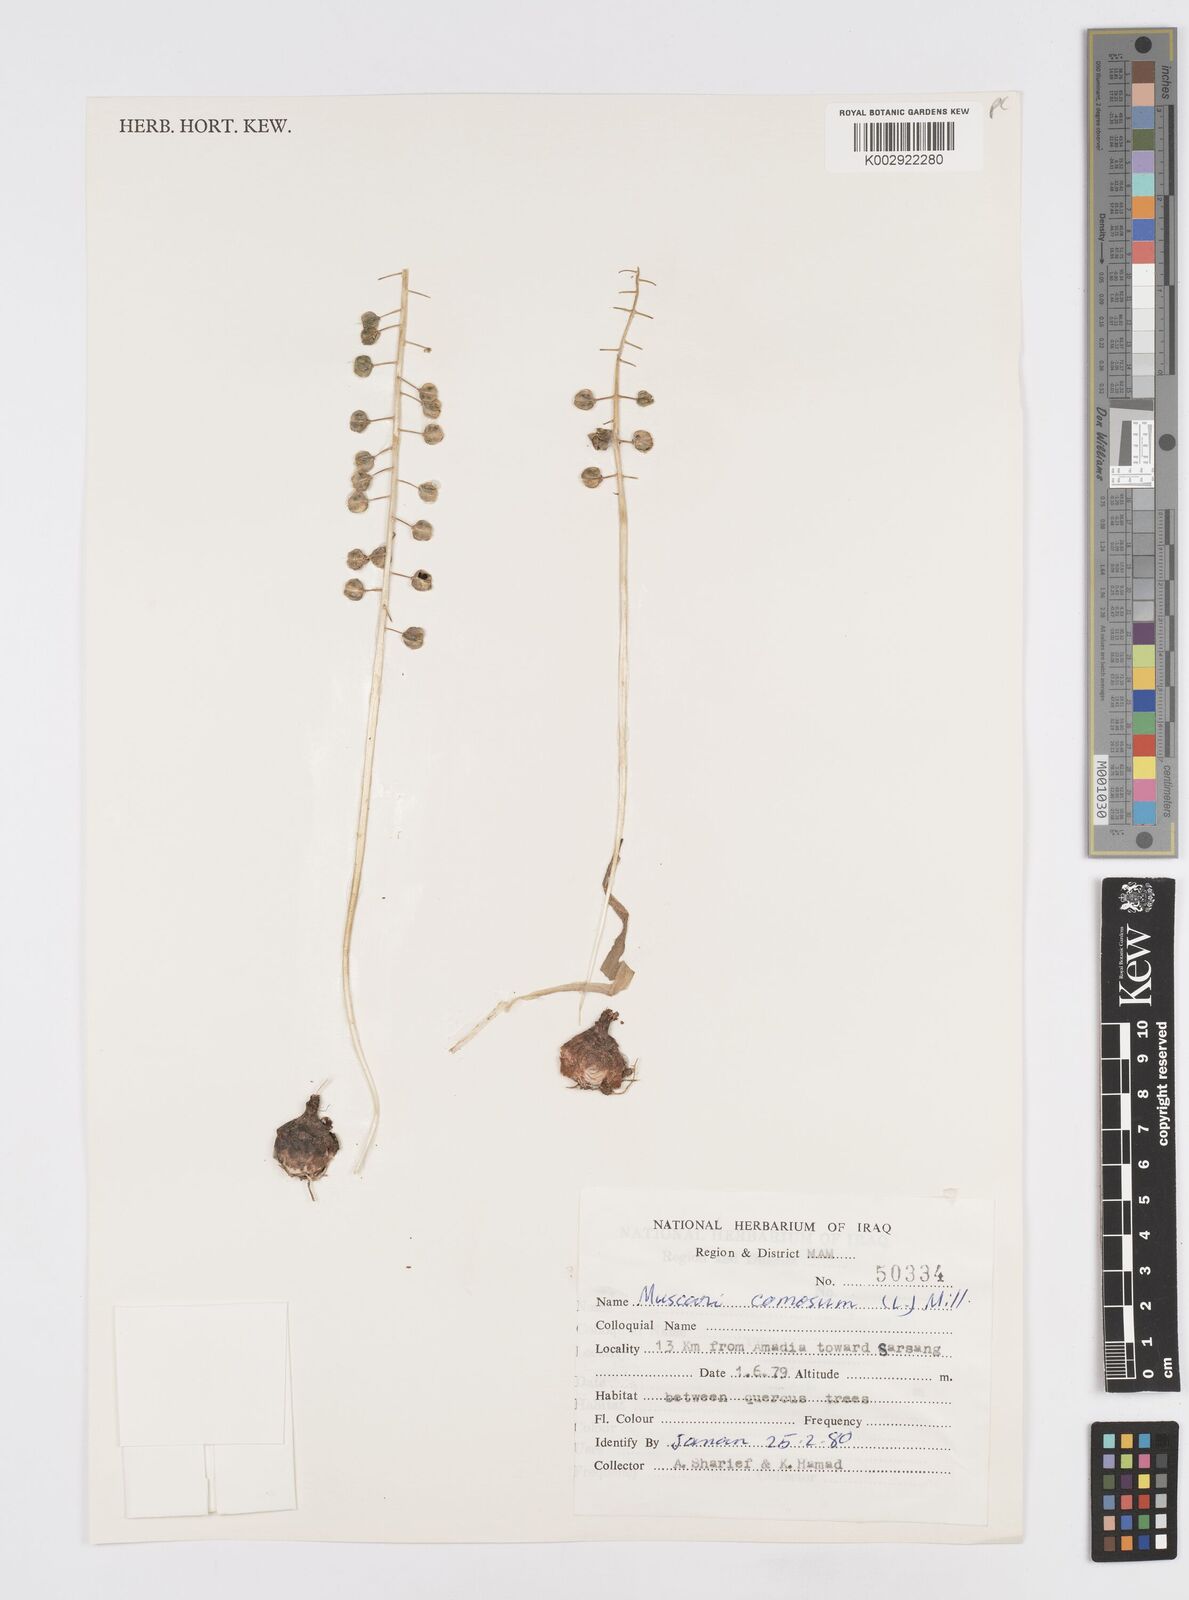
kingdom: Plantae
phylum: Tracheophyta
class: Liliopsida
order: Asparagales
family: Asparagaceae
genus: Muscari
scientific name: Muscari comosum
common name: Tassel hyacinth
